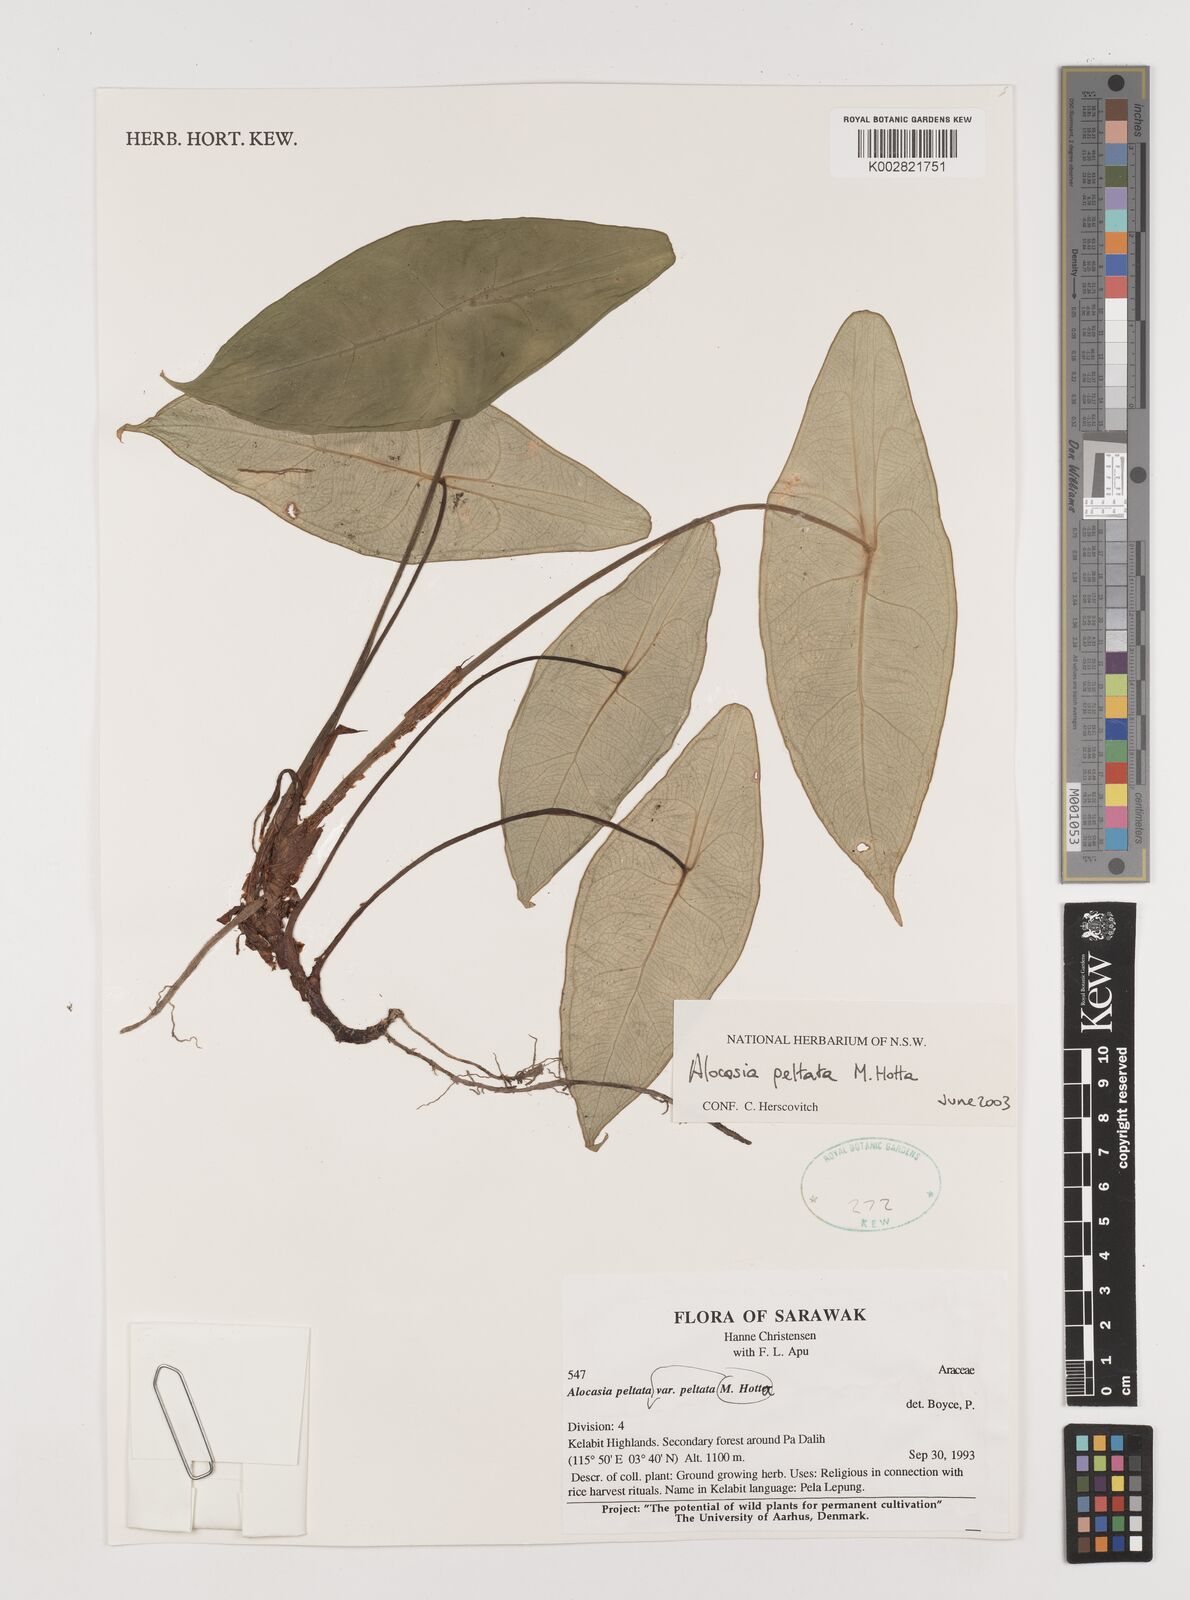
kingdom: Plantae
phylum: Tracheophyta
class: Liliopsida
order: Alismatales
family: Araceae
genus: Alocasia
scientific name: Alocasia peltata
